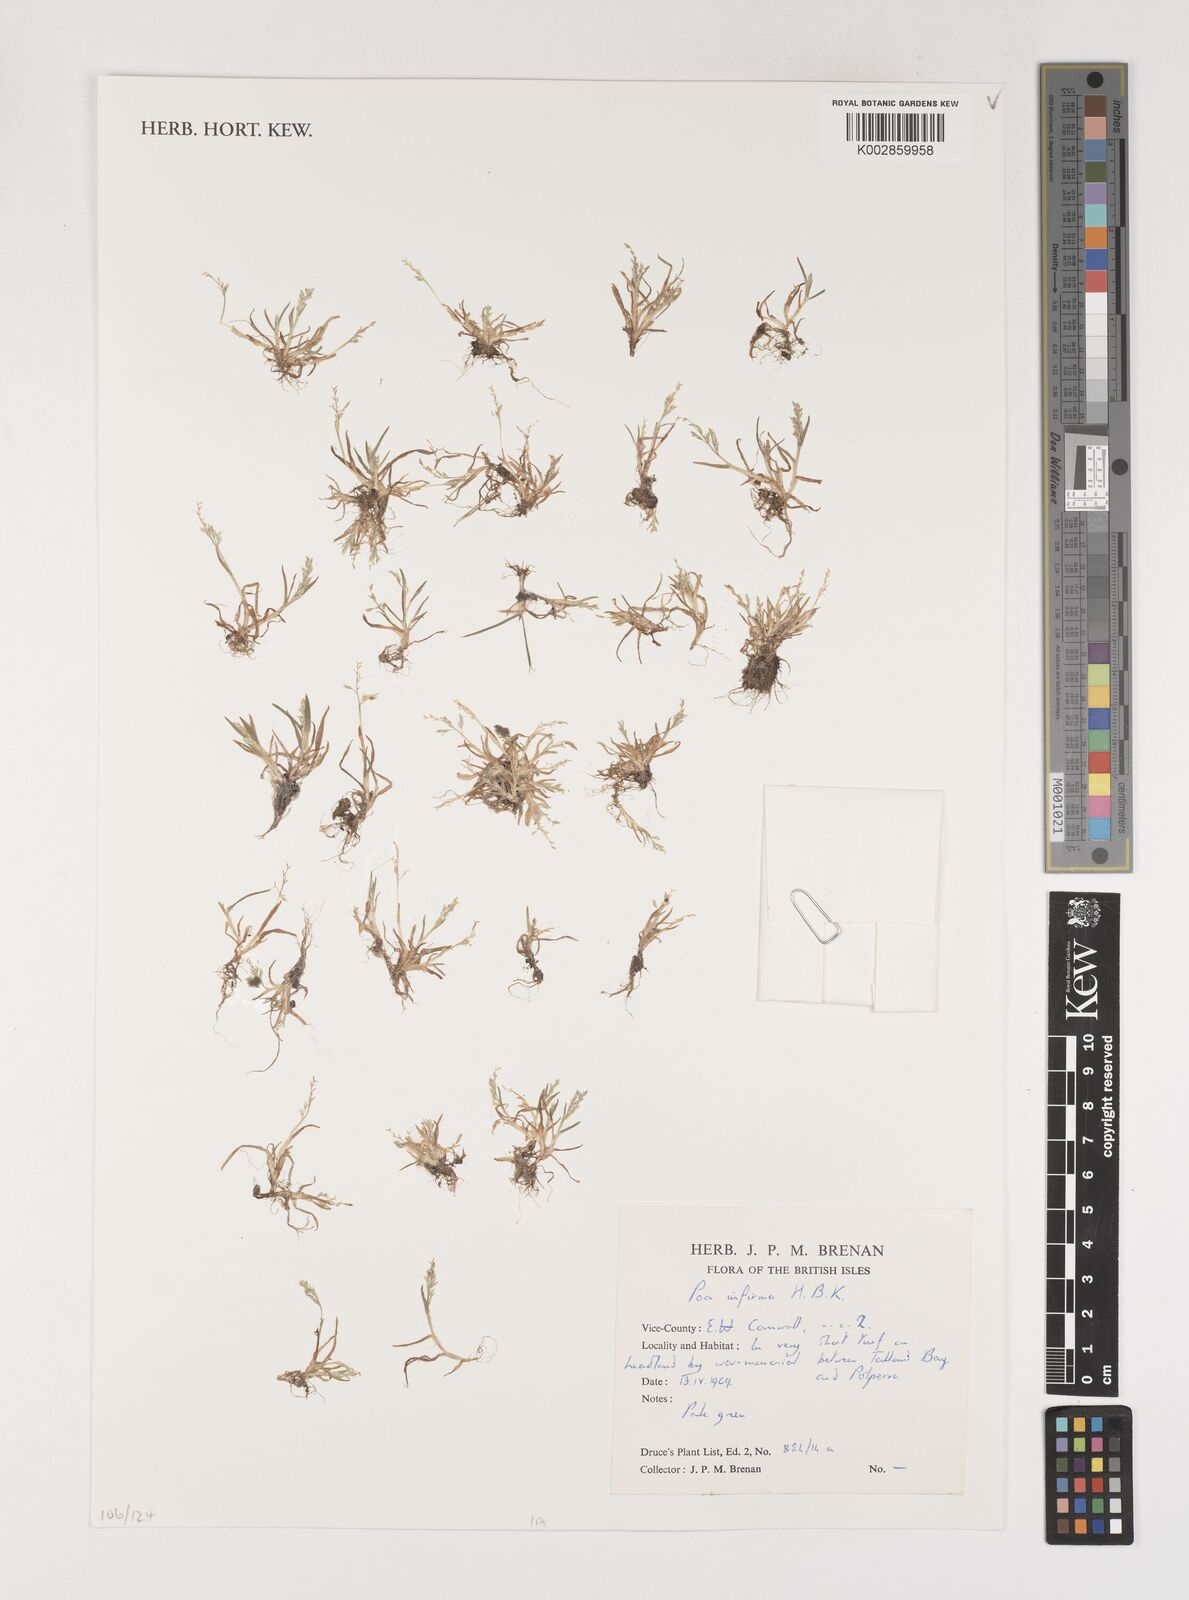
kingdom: Plantae
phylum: Tracheophyta
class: Liliopsida
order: Poales
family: Poaceae
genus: Poa
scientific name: Poa infirma
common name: Weak bluegrass
